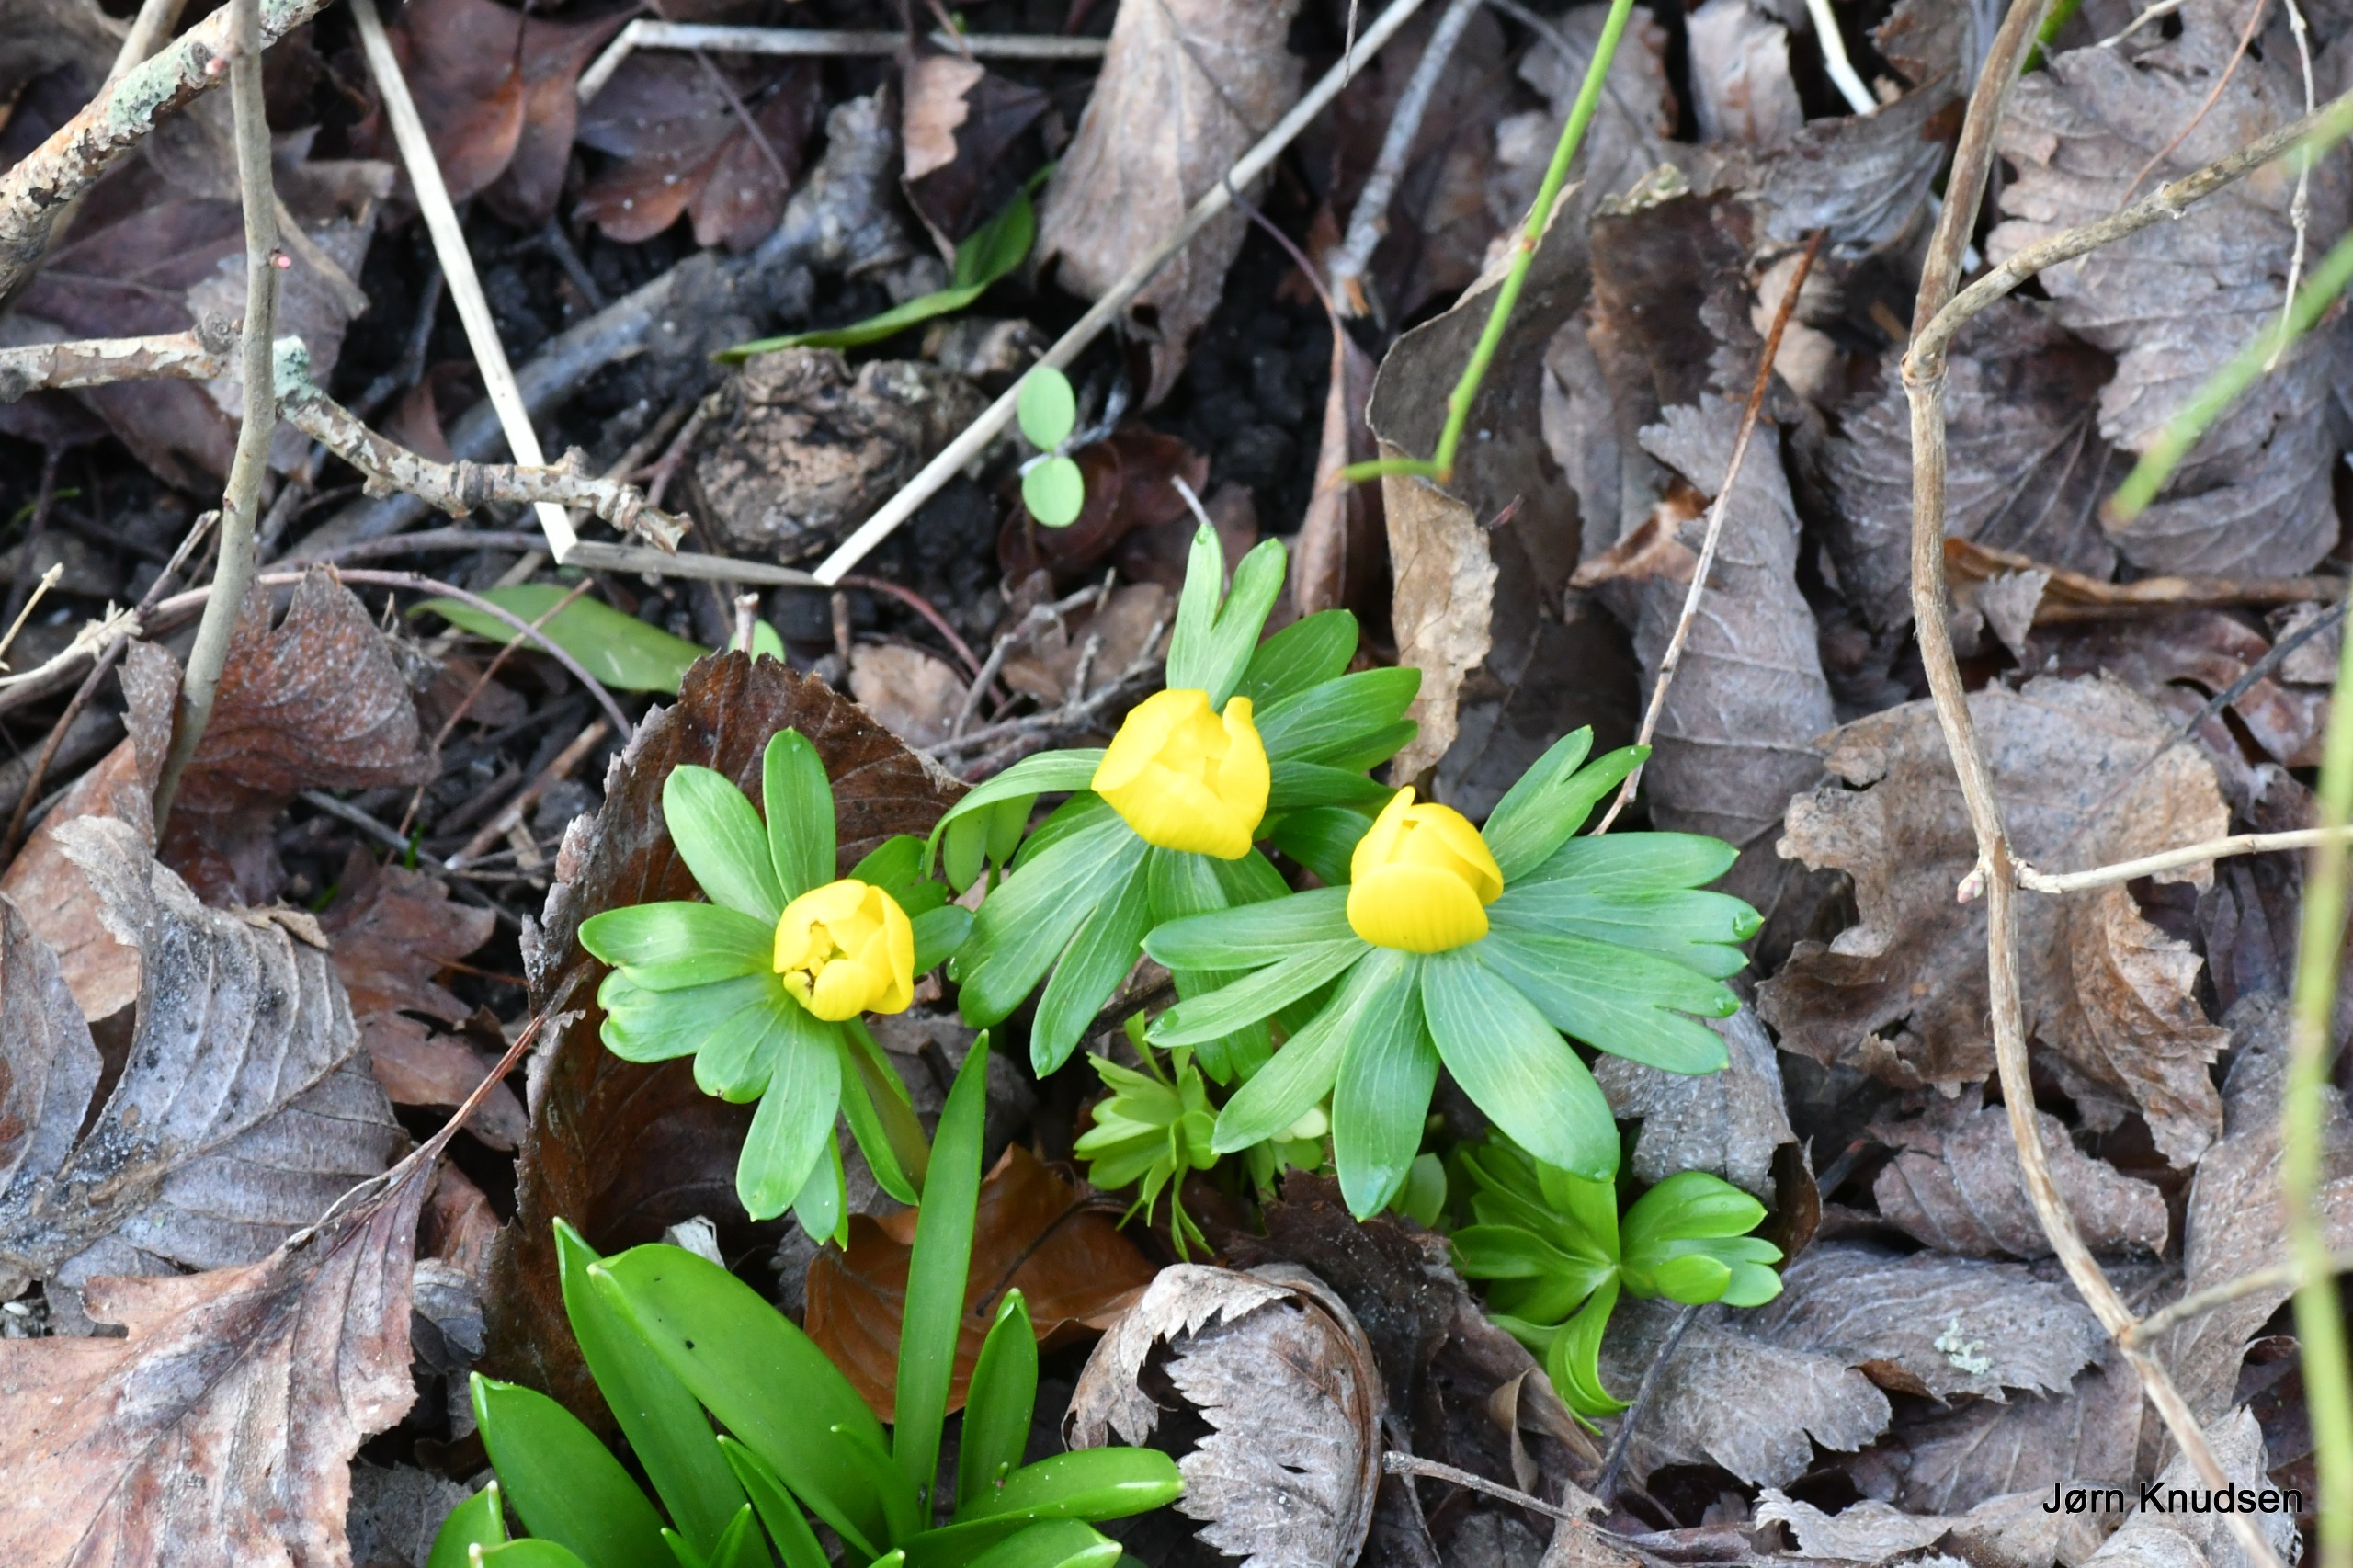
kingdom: Plantae
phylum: Tracheophyta
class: Magnoliopsida
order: Ranunculales
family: Ranunculaceae
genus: Eranthis
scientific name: Eranthis hyemalis
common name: Erantis
